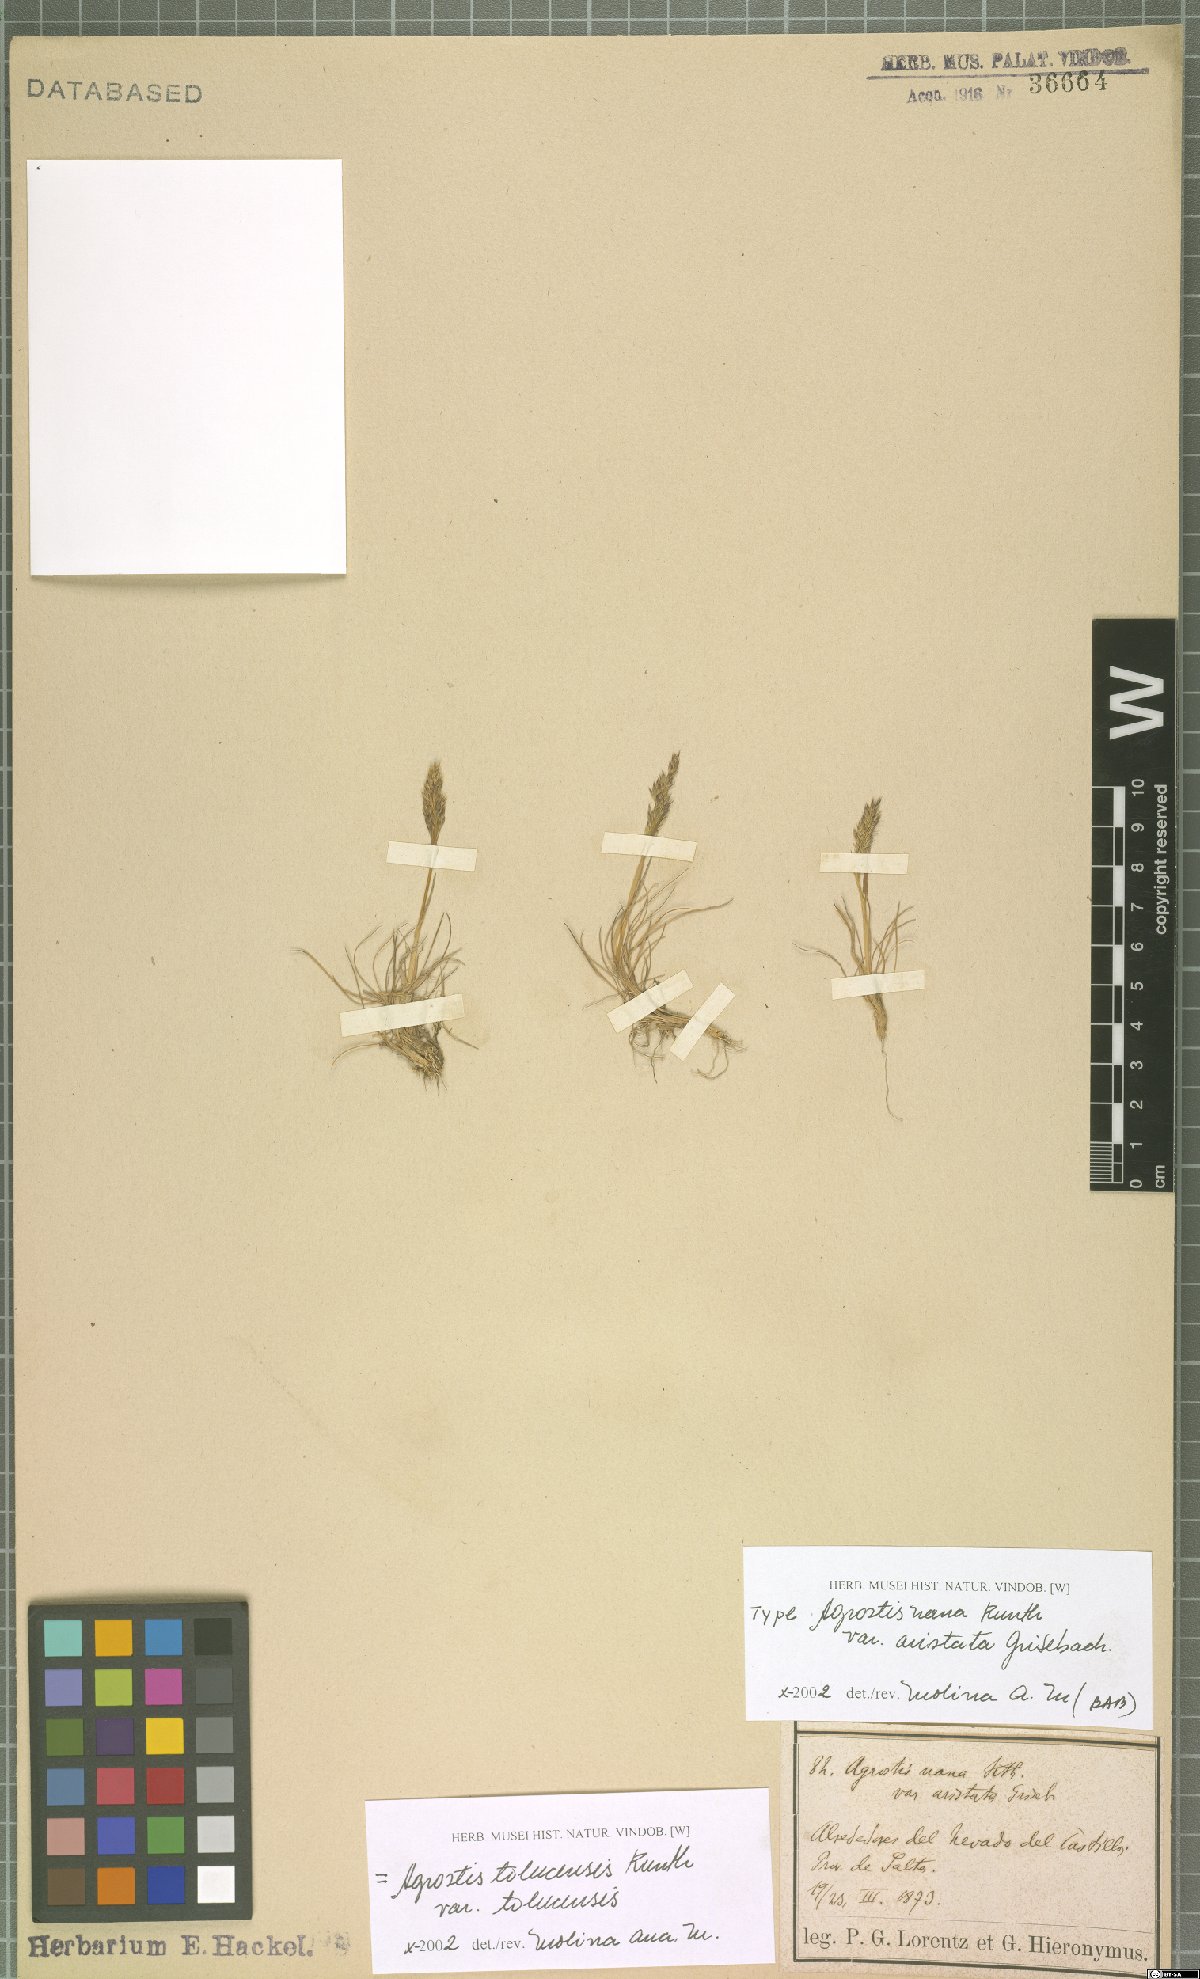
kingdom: Plantae
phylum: Tracheophyta
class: Liliopsida
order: Poales
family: Poaceae
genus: Agrostis
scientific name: Agrostis tolucensis
